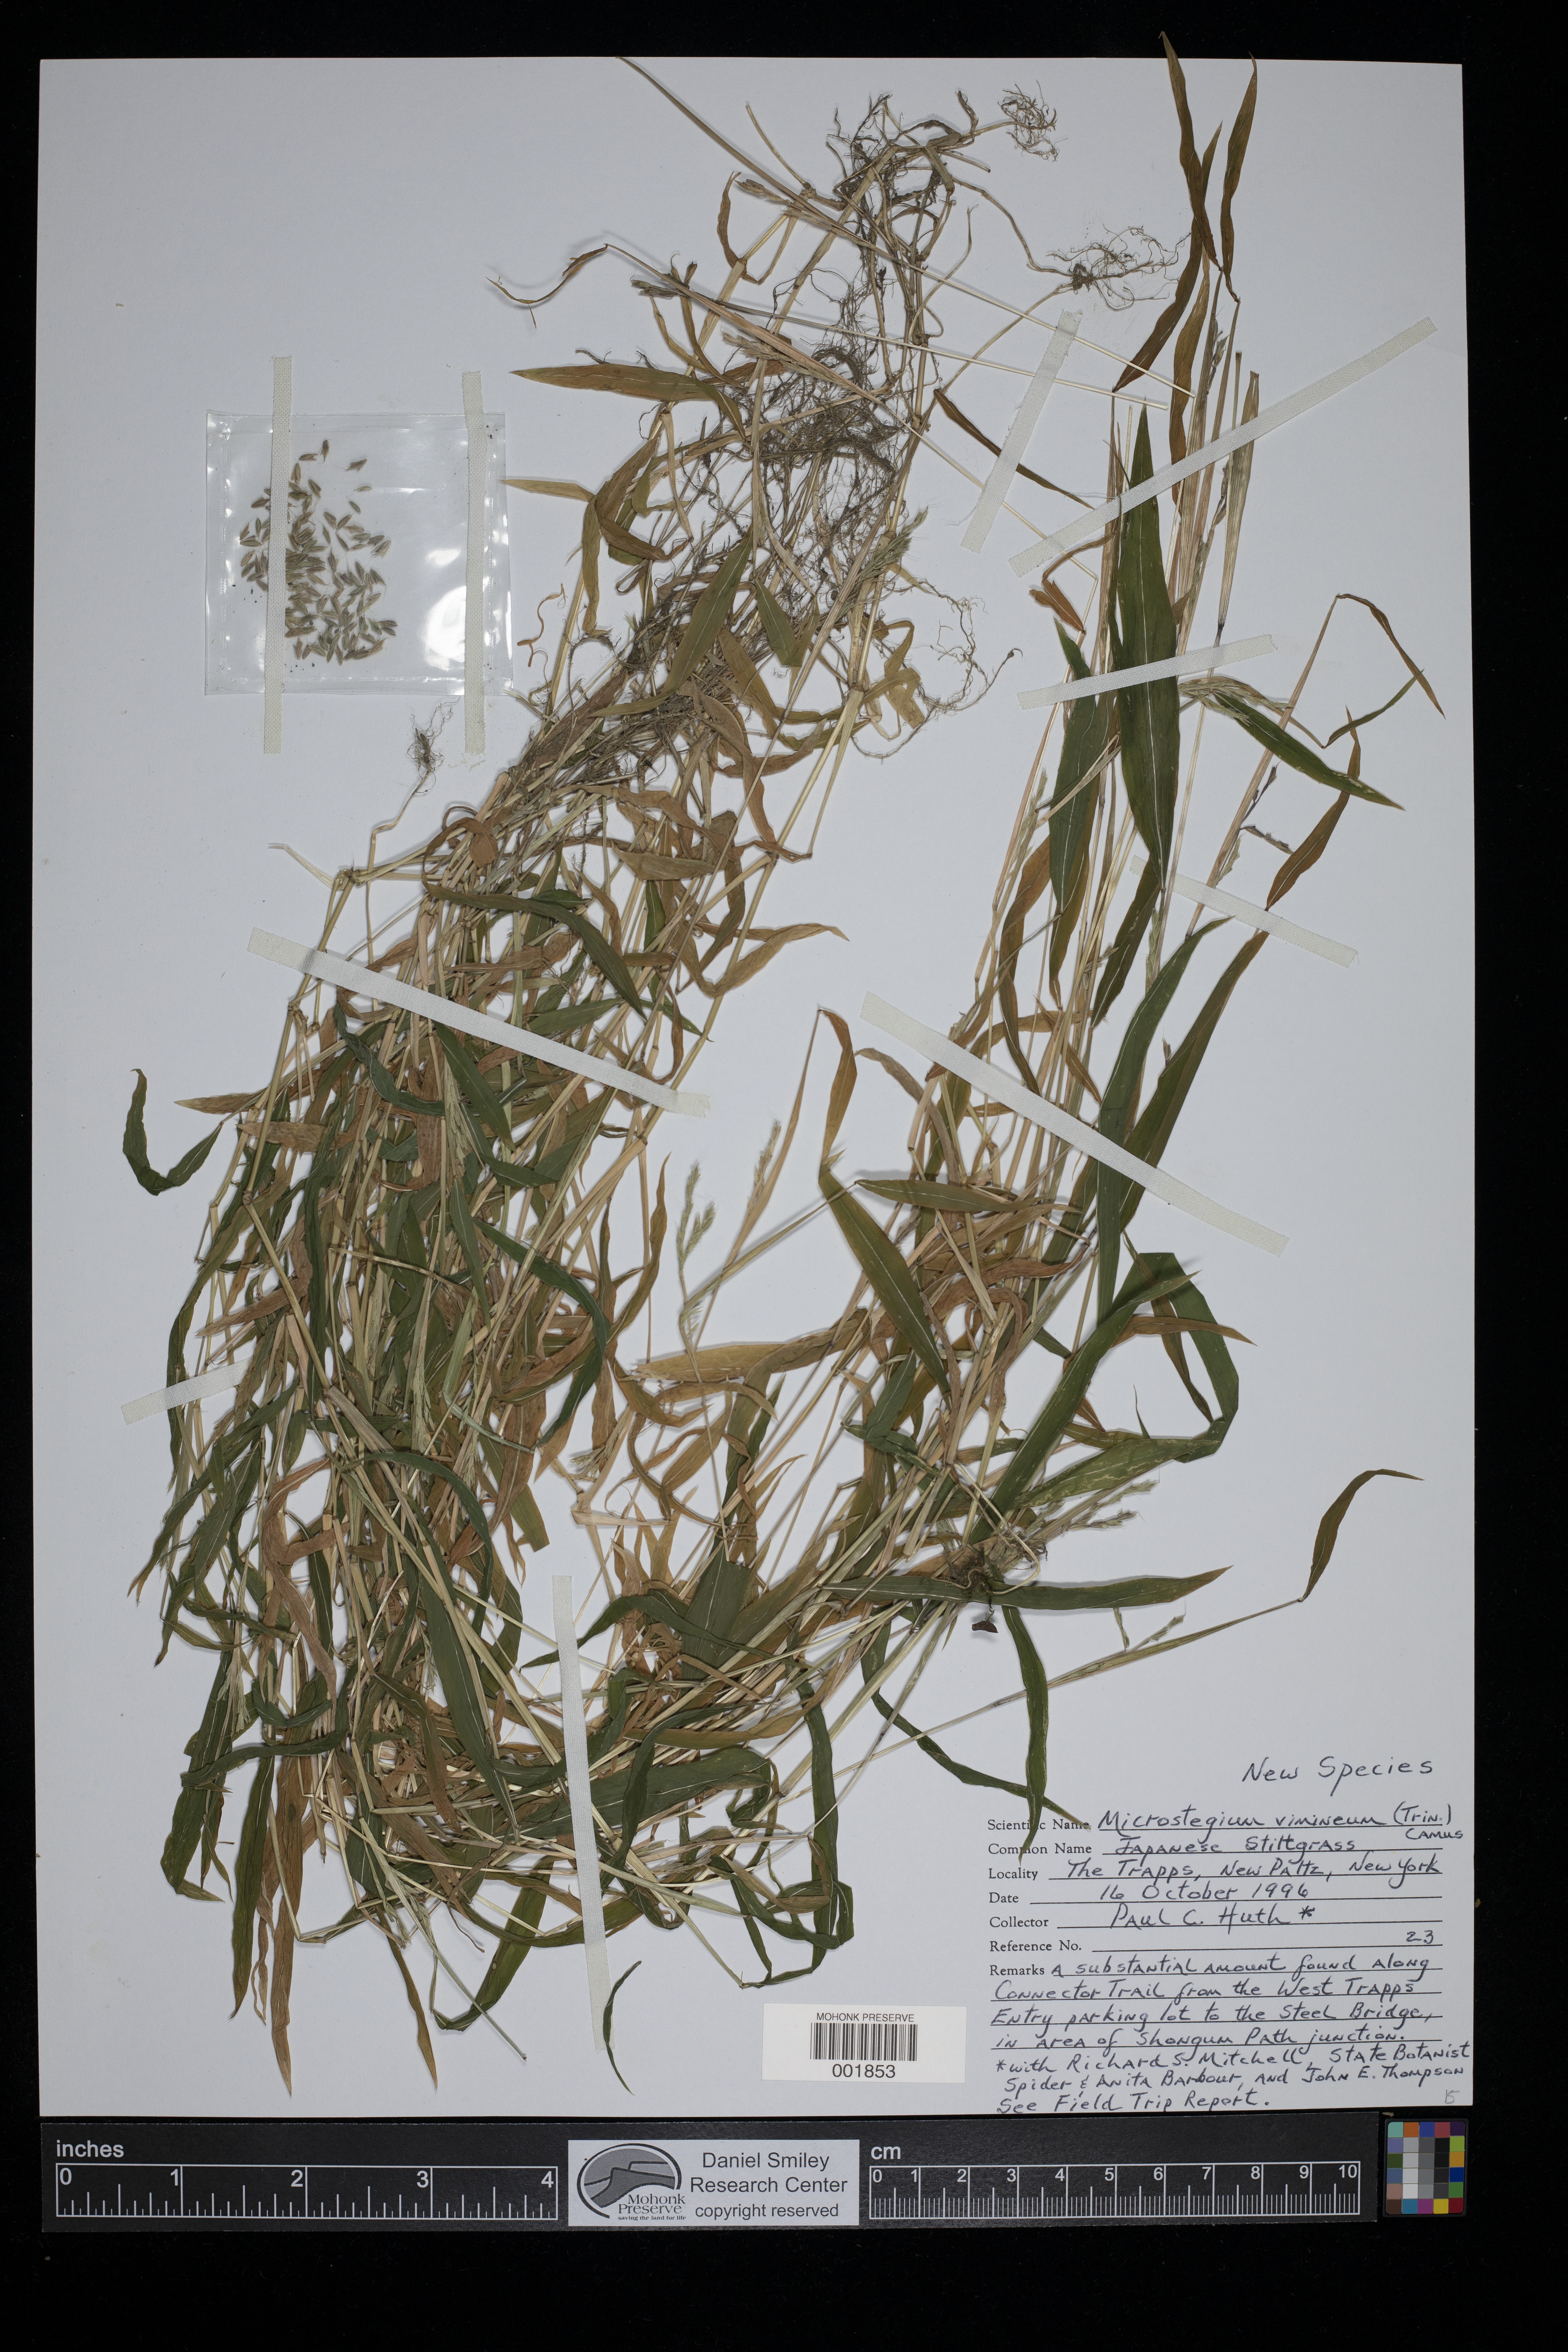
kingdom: Plantae
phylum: Tracheophyta
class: Liliopsida
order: Poales
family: Poaceae
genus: Microstegium
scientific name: Microstegium vimineum
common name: Japanese stiltgrass
